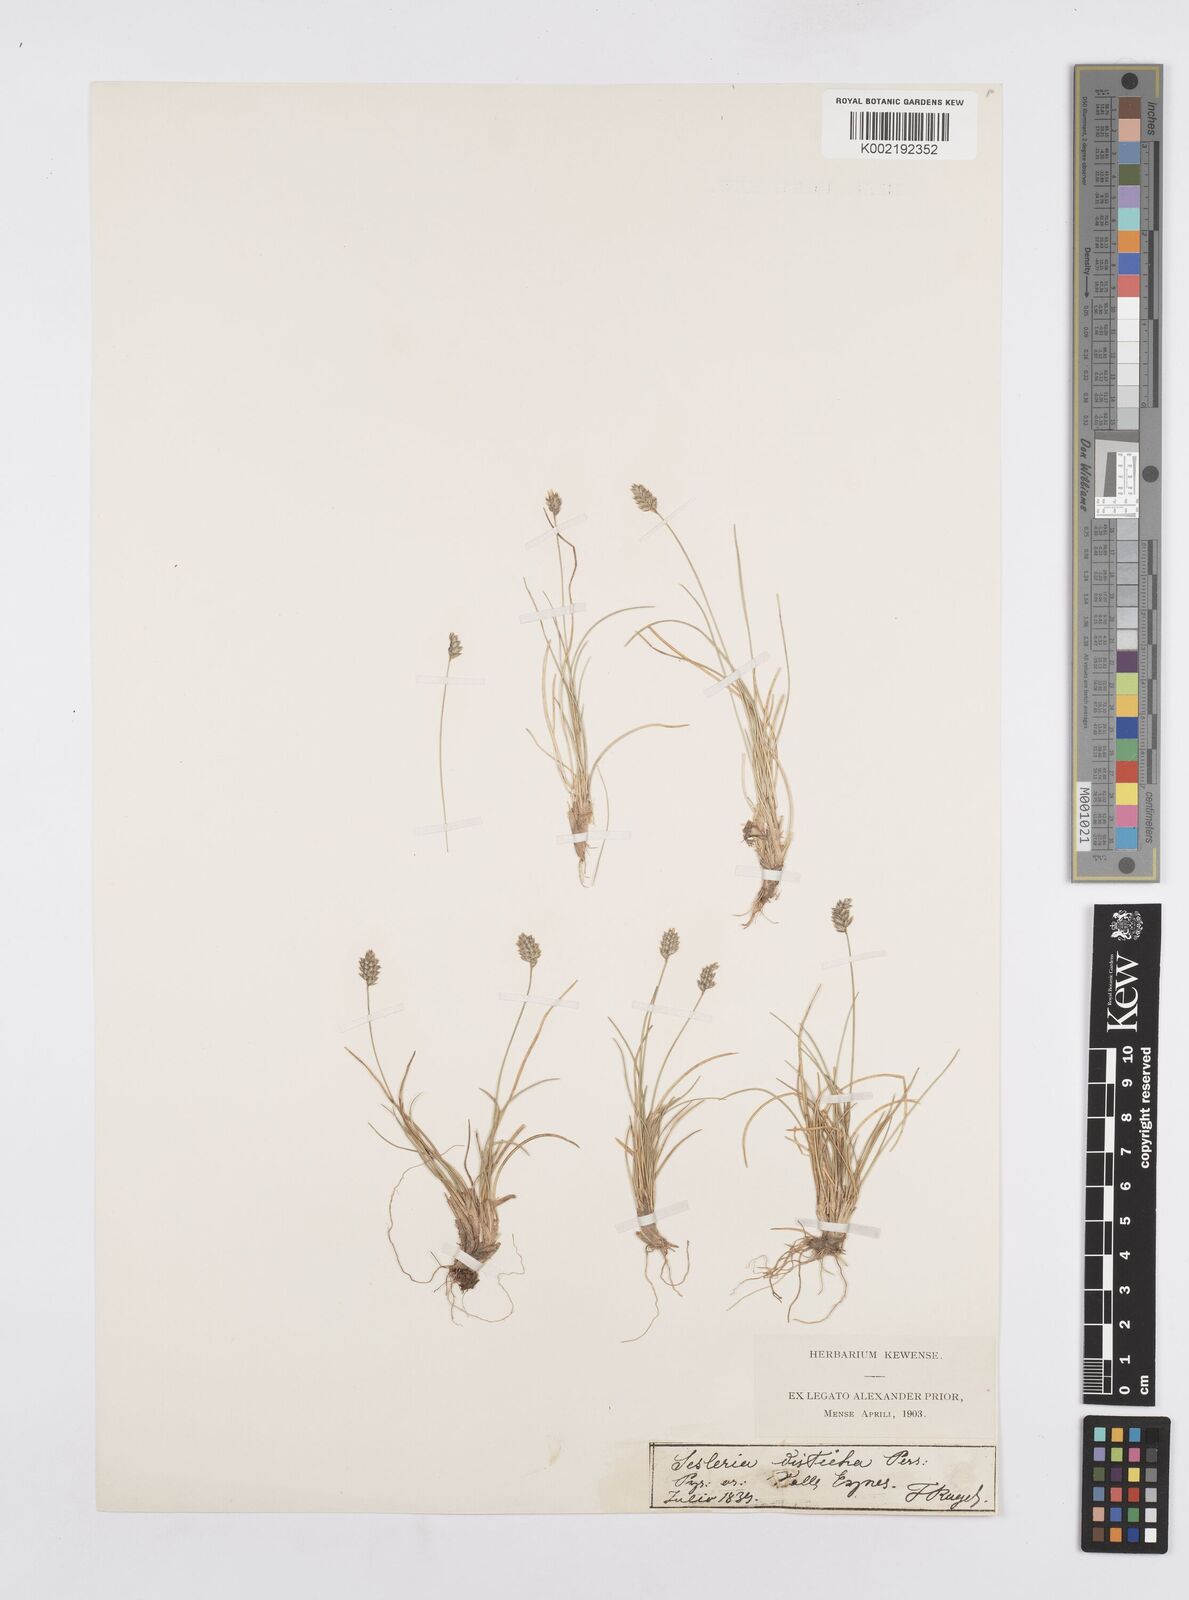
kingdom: Plantae
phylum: Tracheophyta
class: Liliopsida
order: Poales
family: Poaceae
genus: Oreochloa
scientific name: Oreochloa elegans
